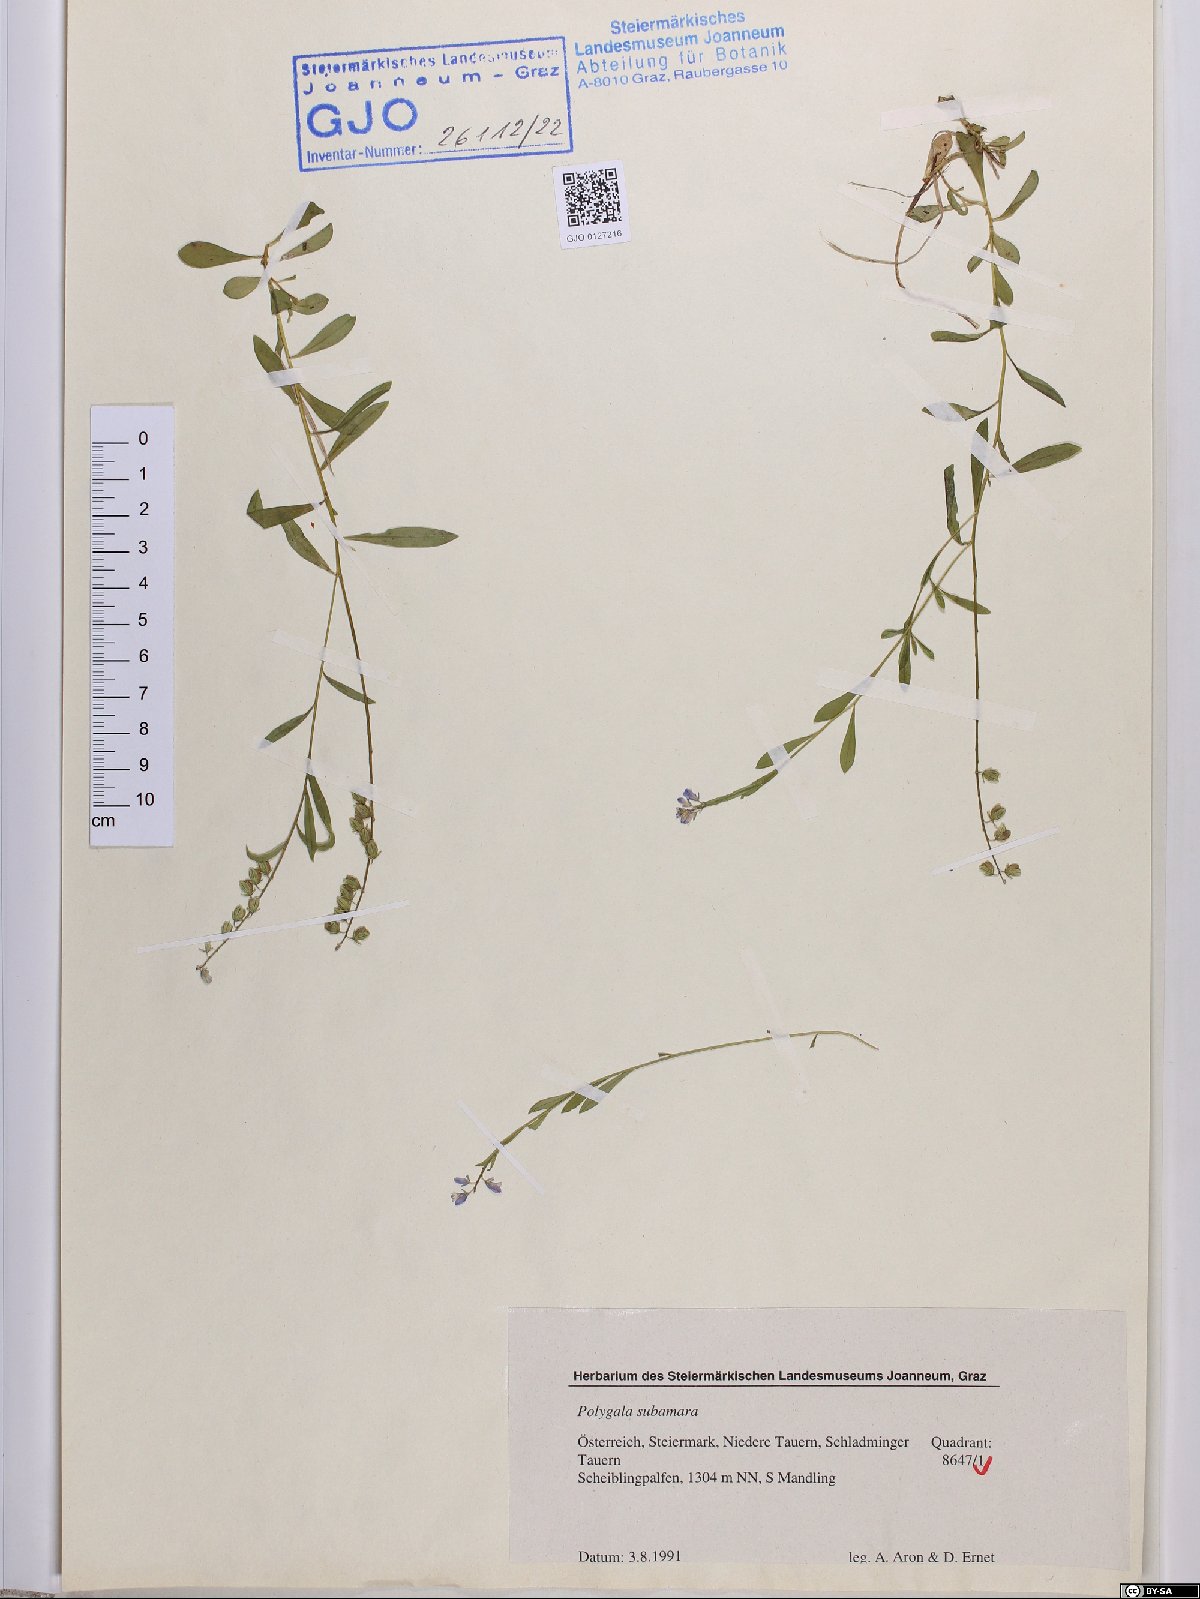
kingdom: Plantae
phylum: Tracheophyta
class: Magnoliopsida
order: Fabales
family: Polygalaceae
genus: Polygala
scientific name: Polygala amara
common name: Milkwort
